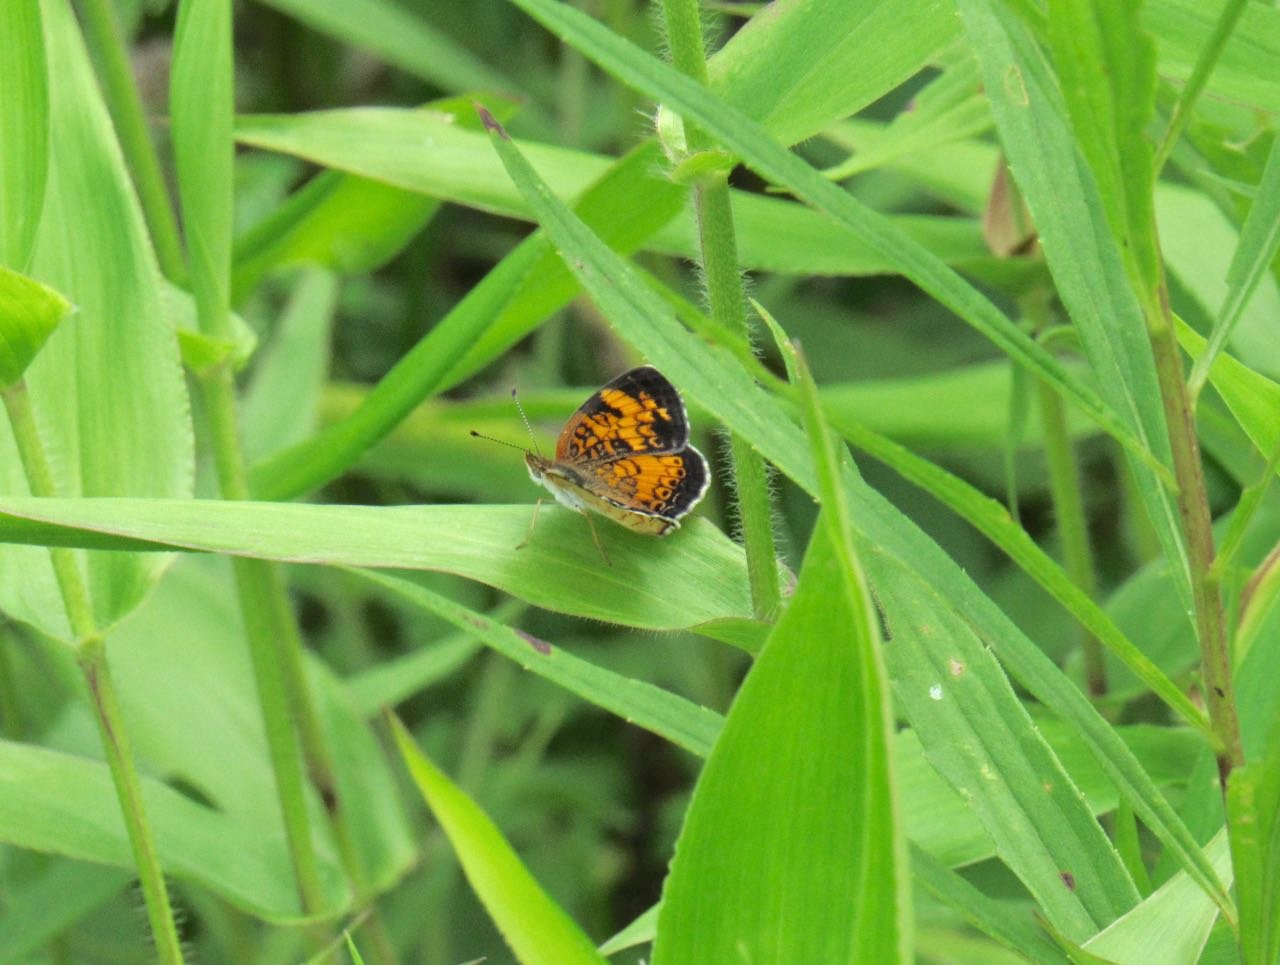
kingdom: Animalia
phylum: Arthropoda
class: Insecta
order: Lepidoptera
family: Nymphalidae
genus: Phyciodes
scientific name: Phyciodes tharos
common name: Pearl Crescent
